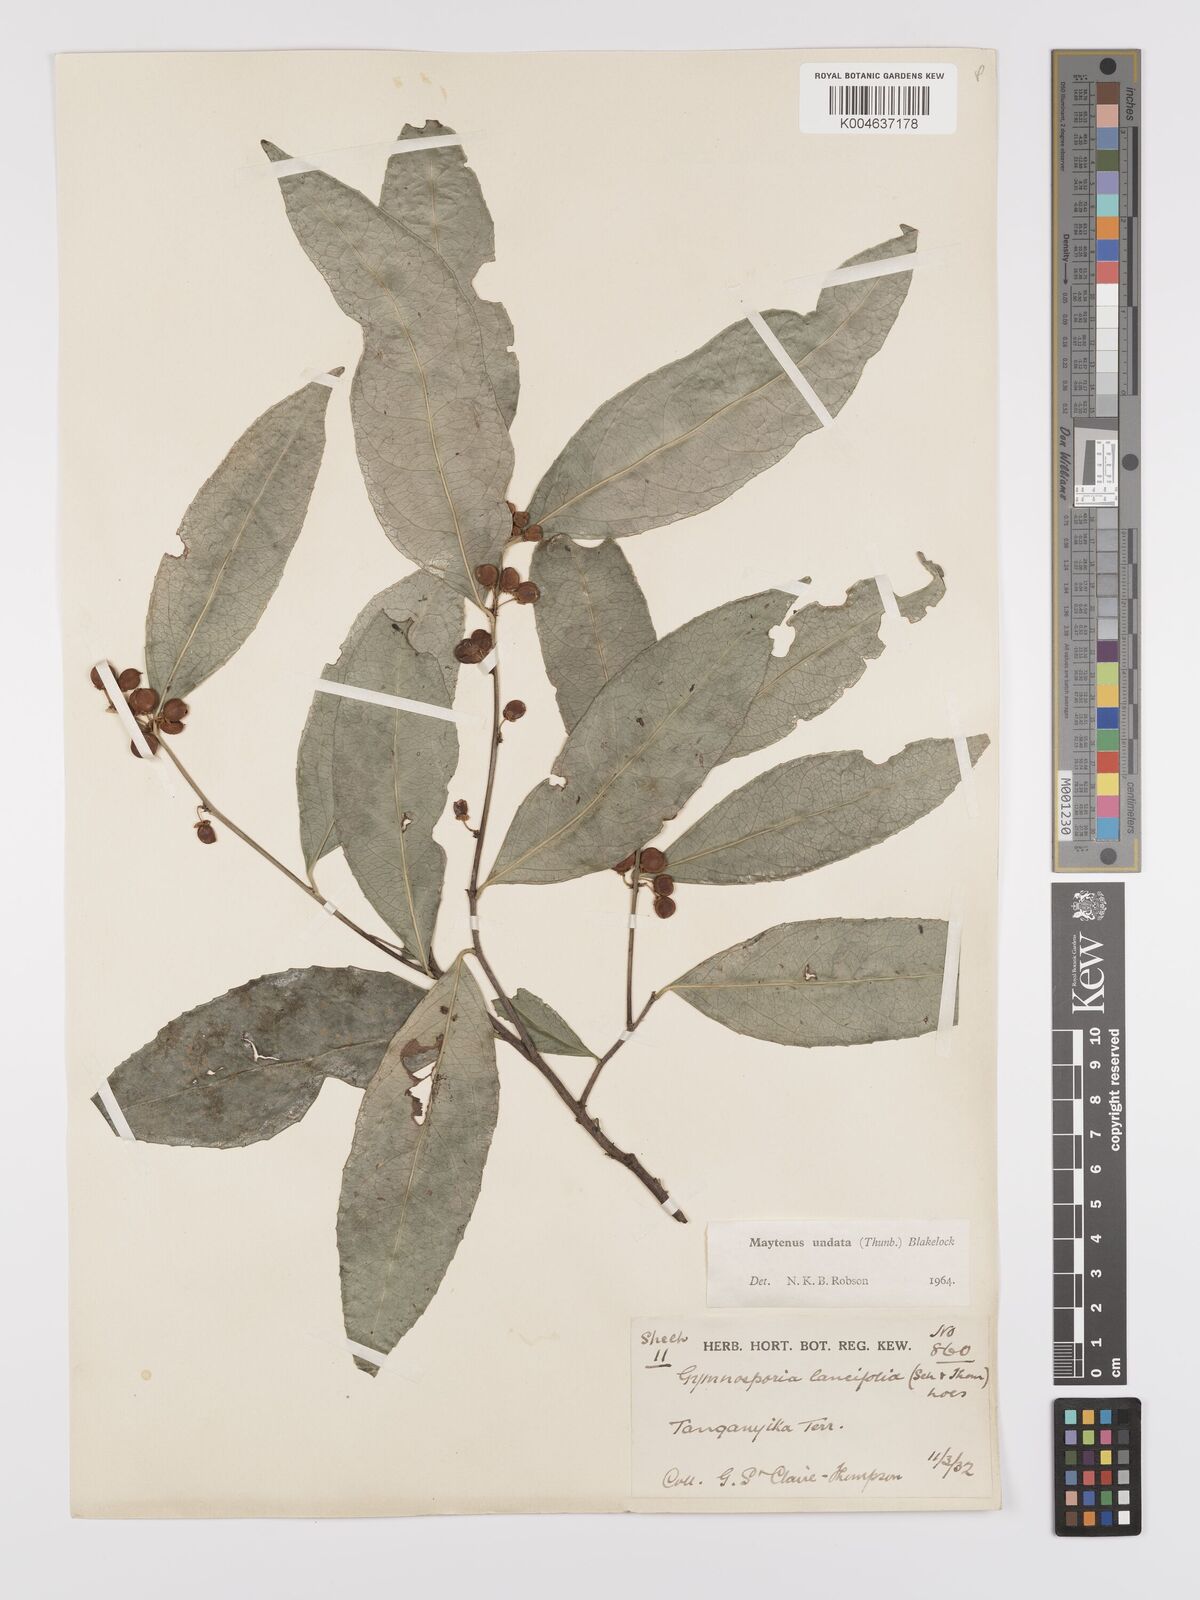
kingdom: Plantae
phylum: Tracheophyta
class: Magnoliopsida
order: Celastrales
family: Celastraceae
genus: Gymnosporia
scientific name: Gymnosporia undata
